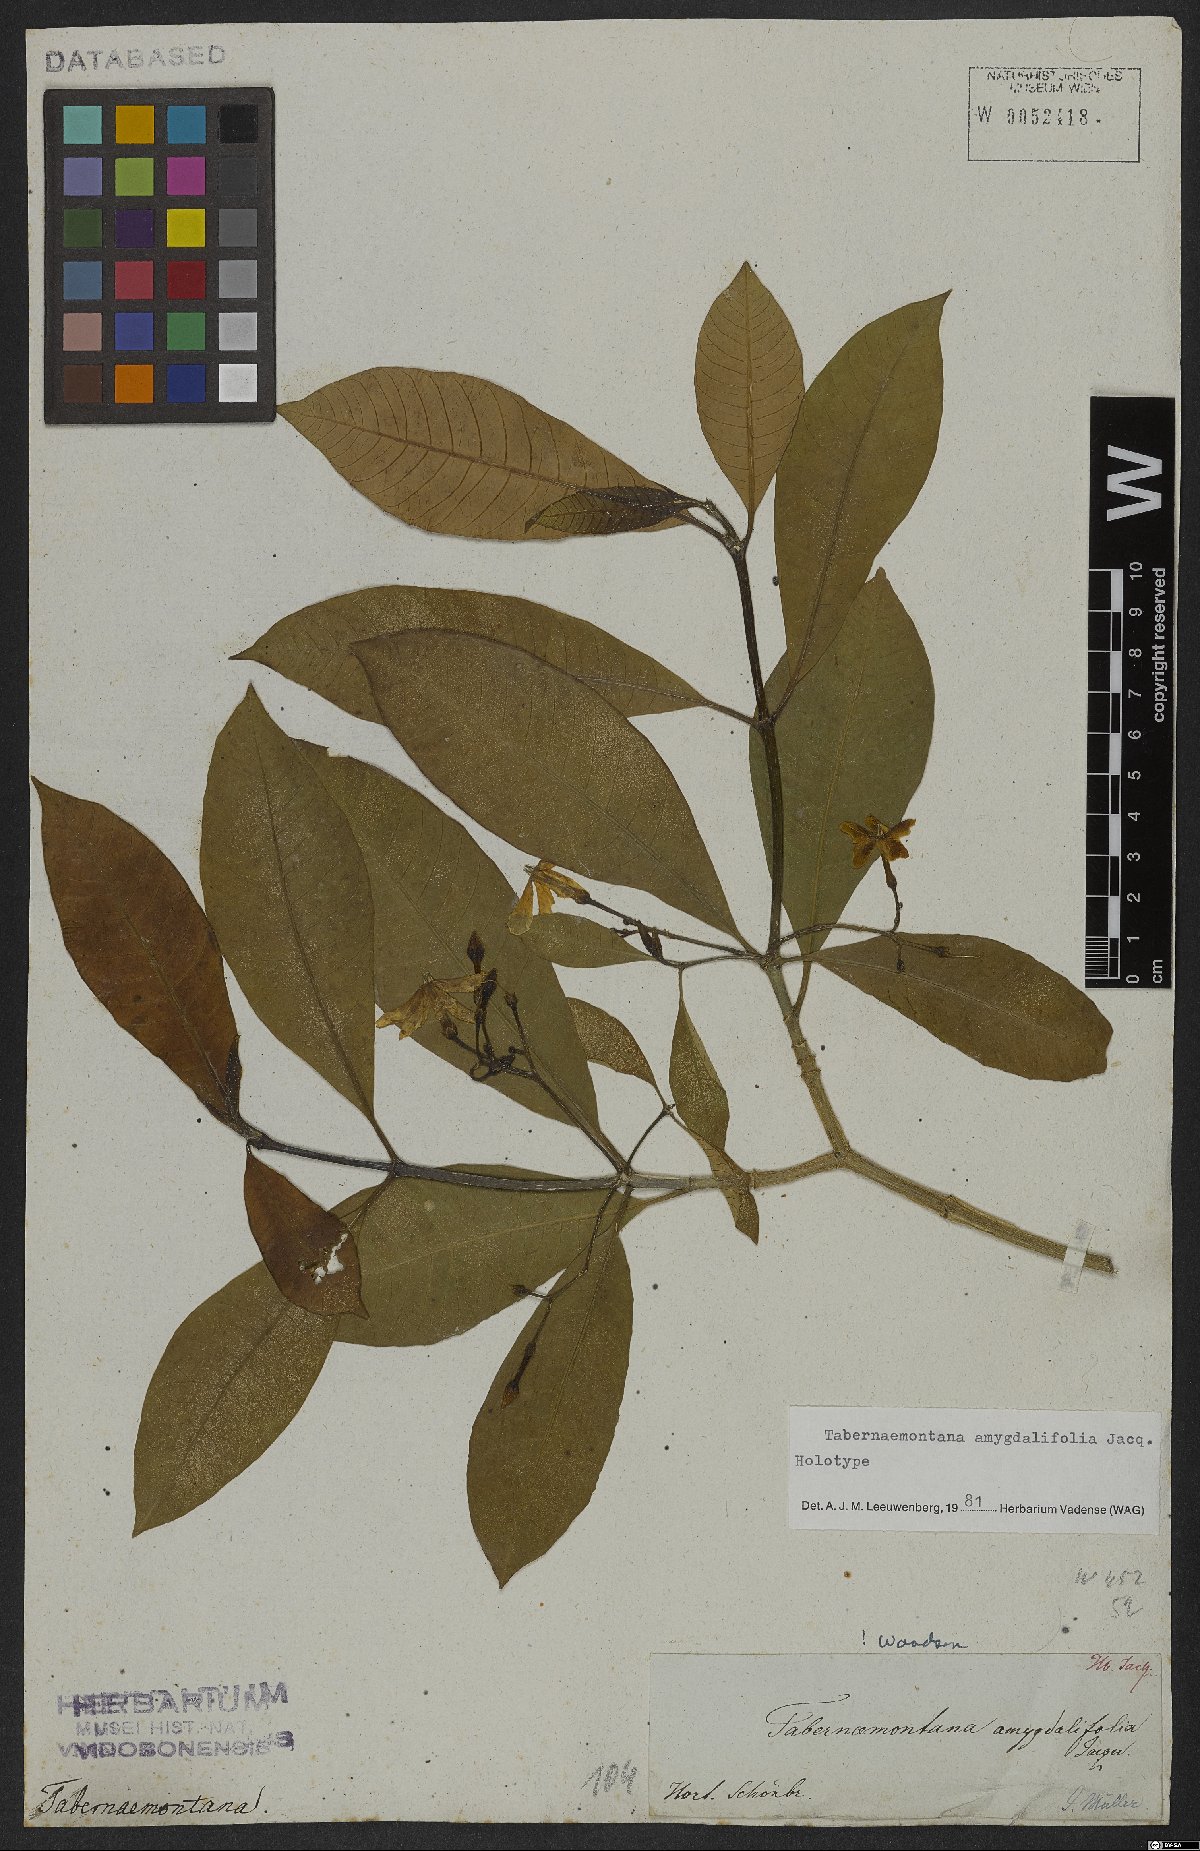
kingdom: Plantae
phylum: Tracheophyta
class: Magnoliopsida
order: Gentianales
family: Apocynaceae
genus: Tabernaemontana
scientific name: Tabernaemontana amygdalifolia
